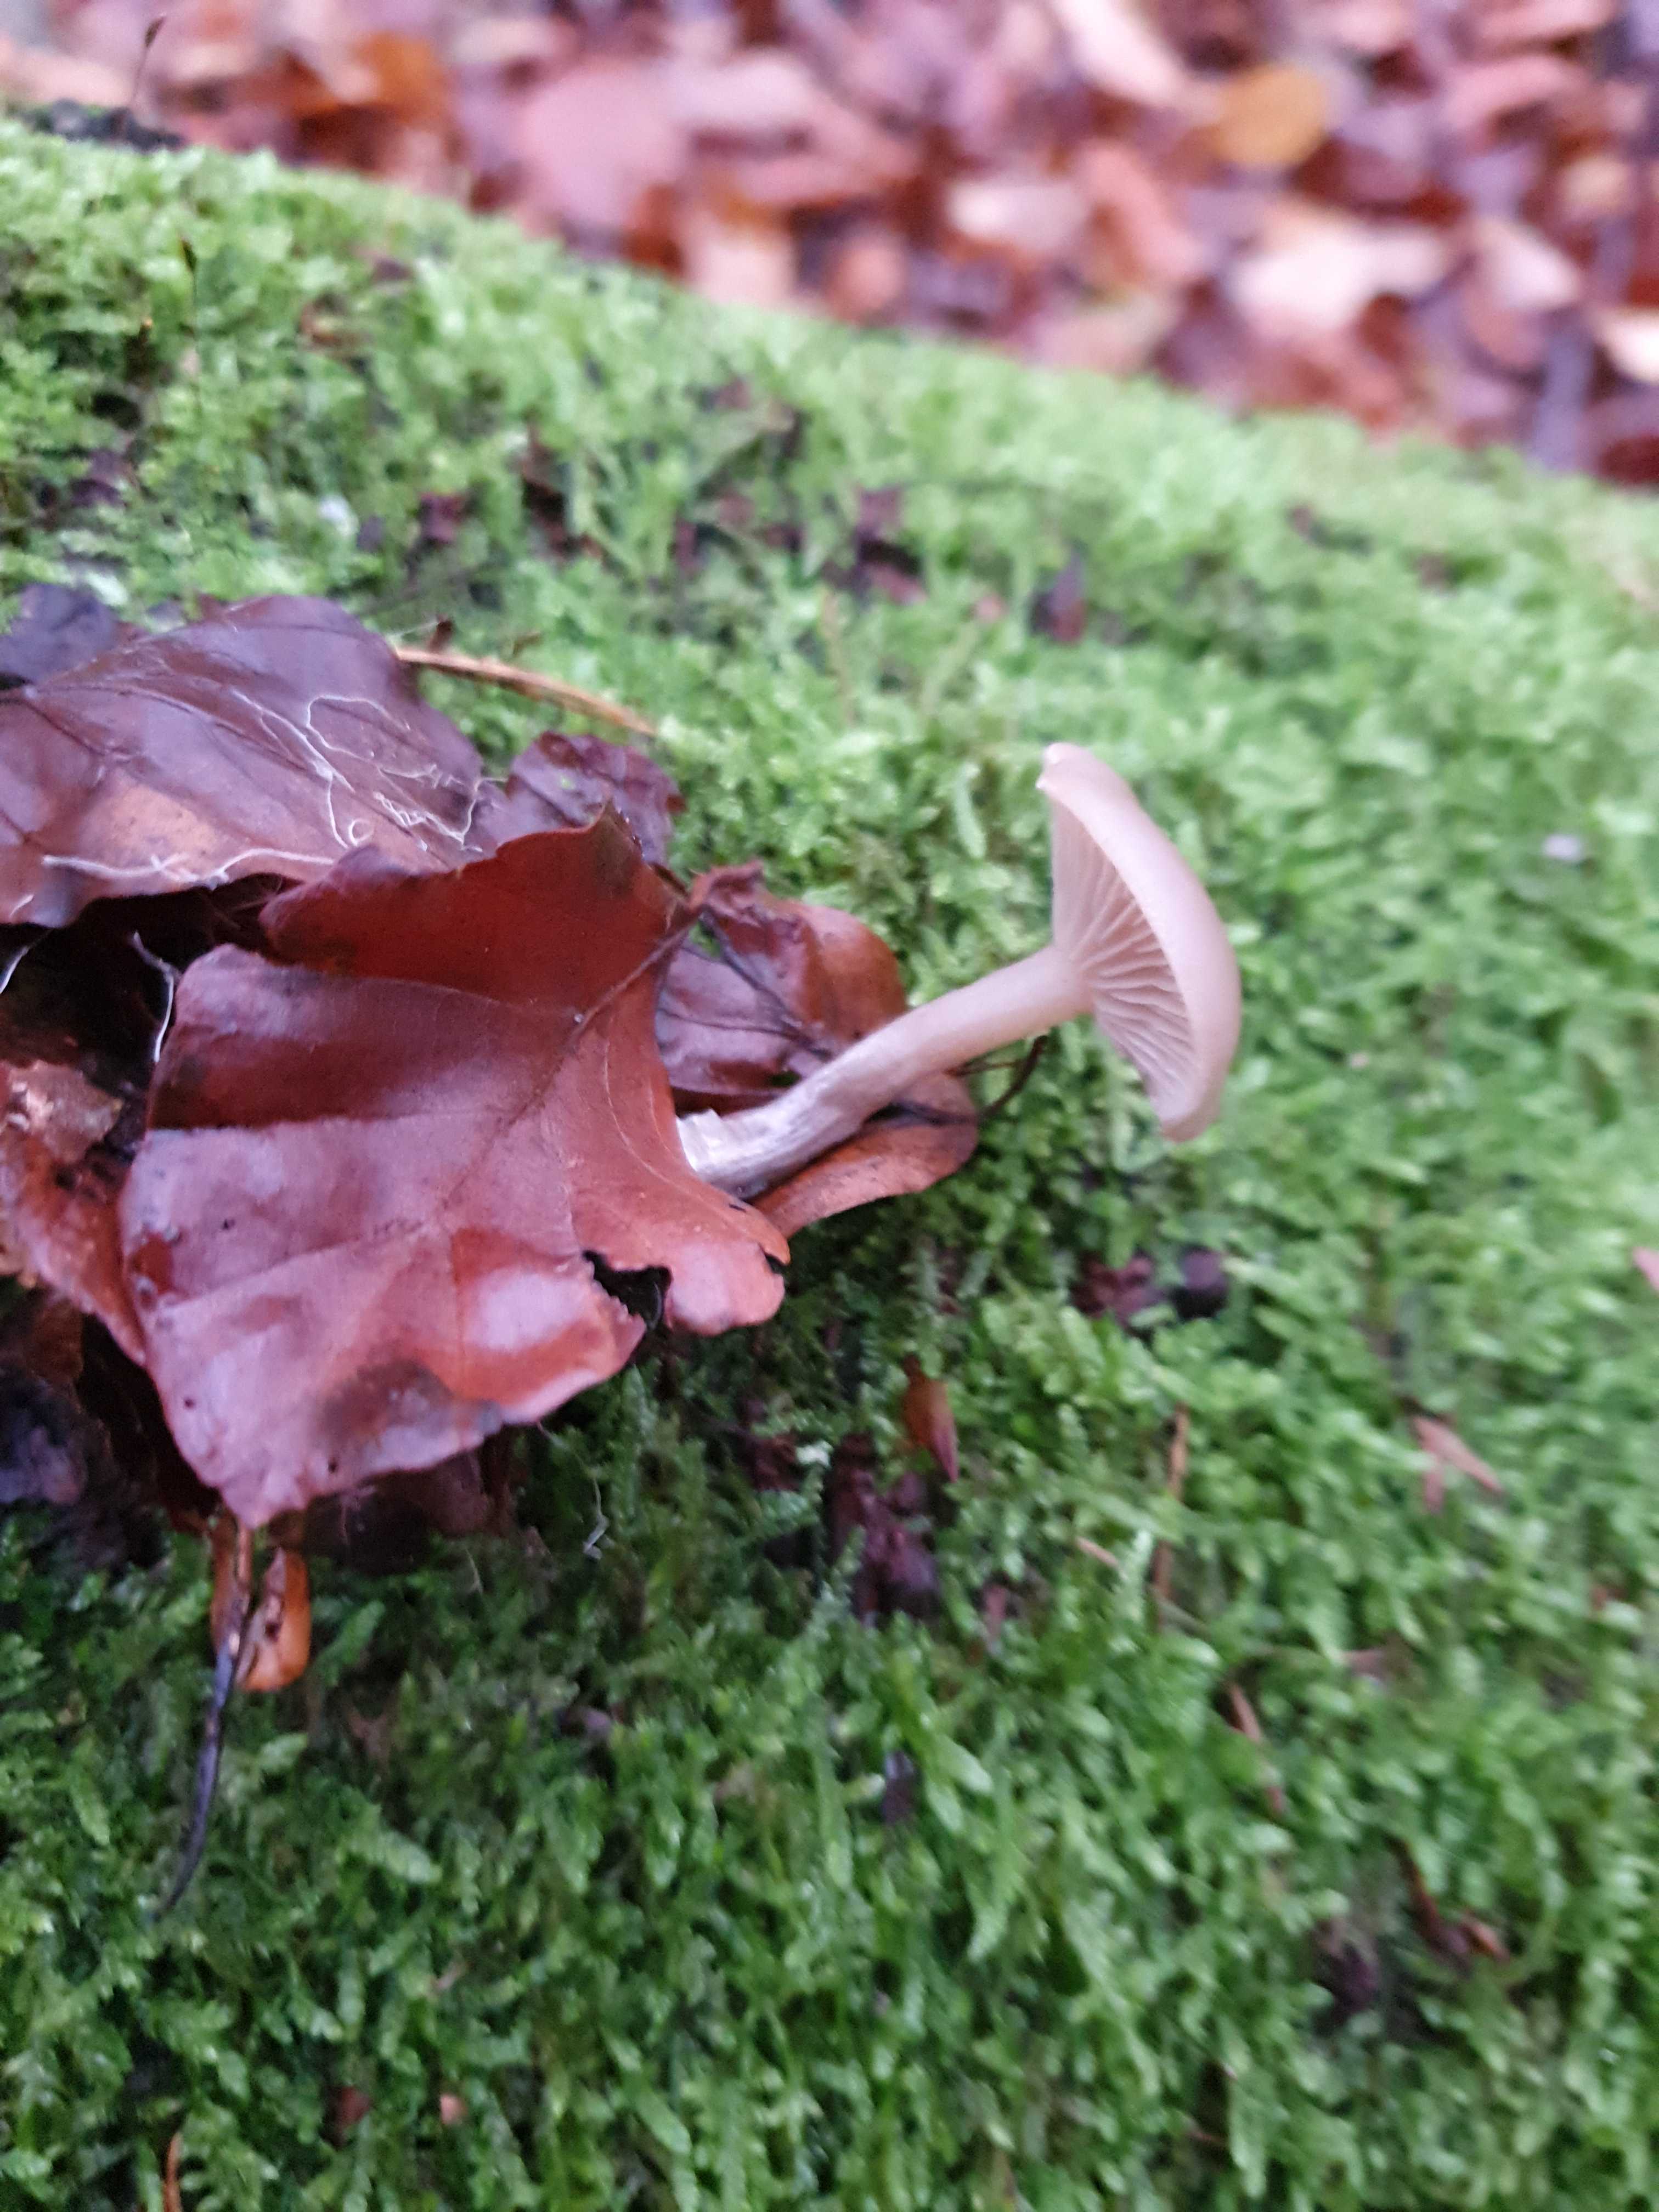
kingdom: Fungi
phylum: Basidiomycota
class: Agaricomycetes
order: Agaricales
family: Pseudoclitocybaceae
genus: Pseudoclitocybe
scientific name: Pseudoclitocybe cyathiformis
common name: almindelig bægertragthat
